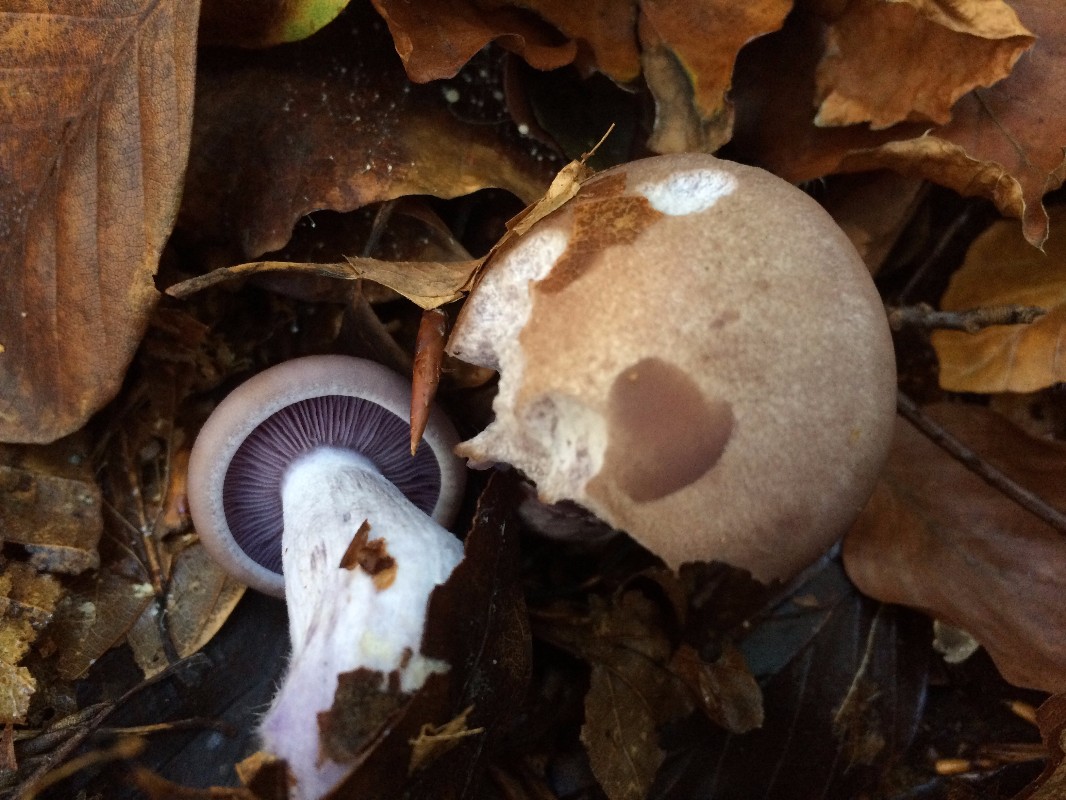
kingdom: Fungi
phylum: Basidiomycota
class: Agaricomycetes
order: Agaricales
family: Tricholomataceae
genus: Lepista
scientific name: Lepista nuda
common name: violet hekseringshat
